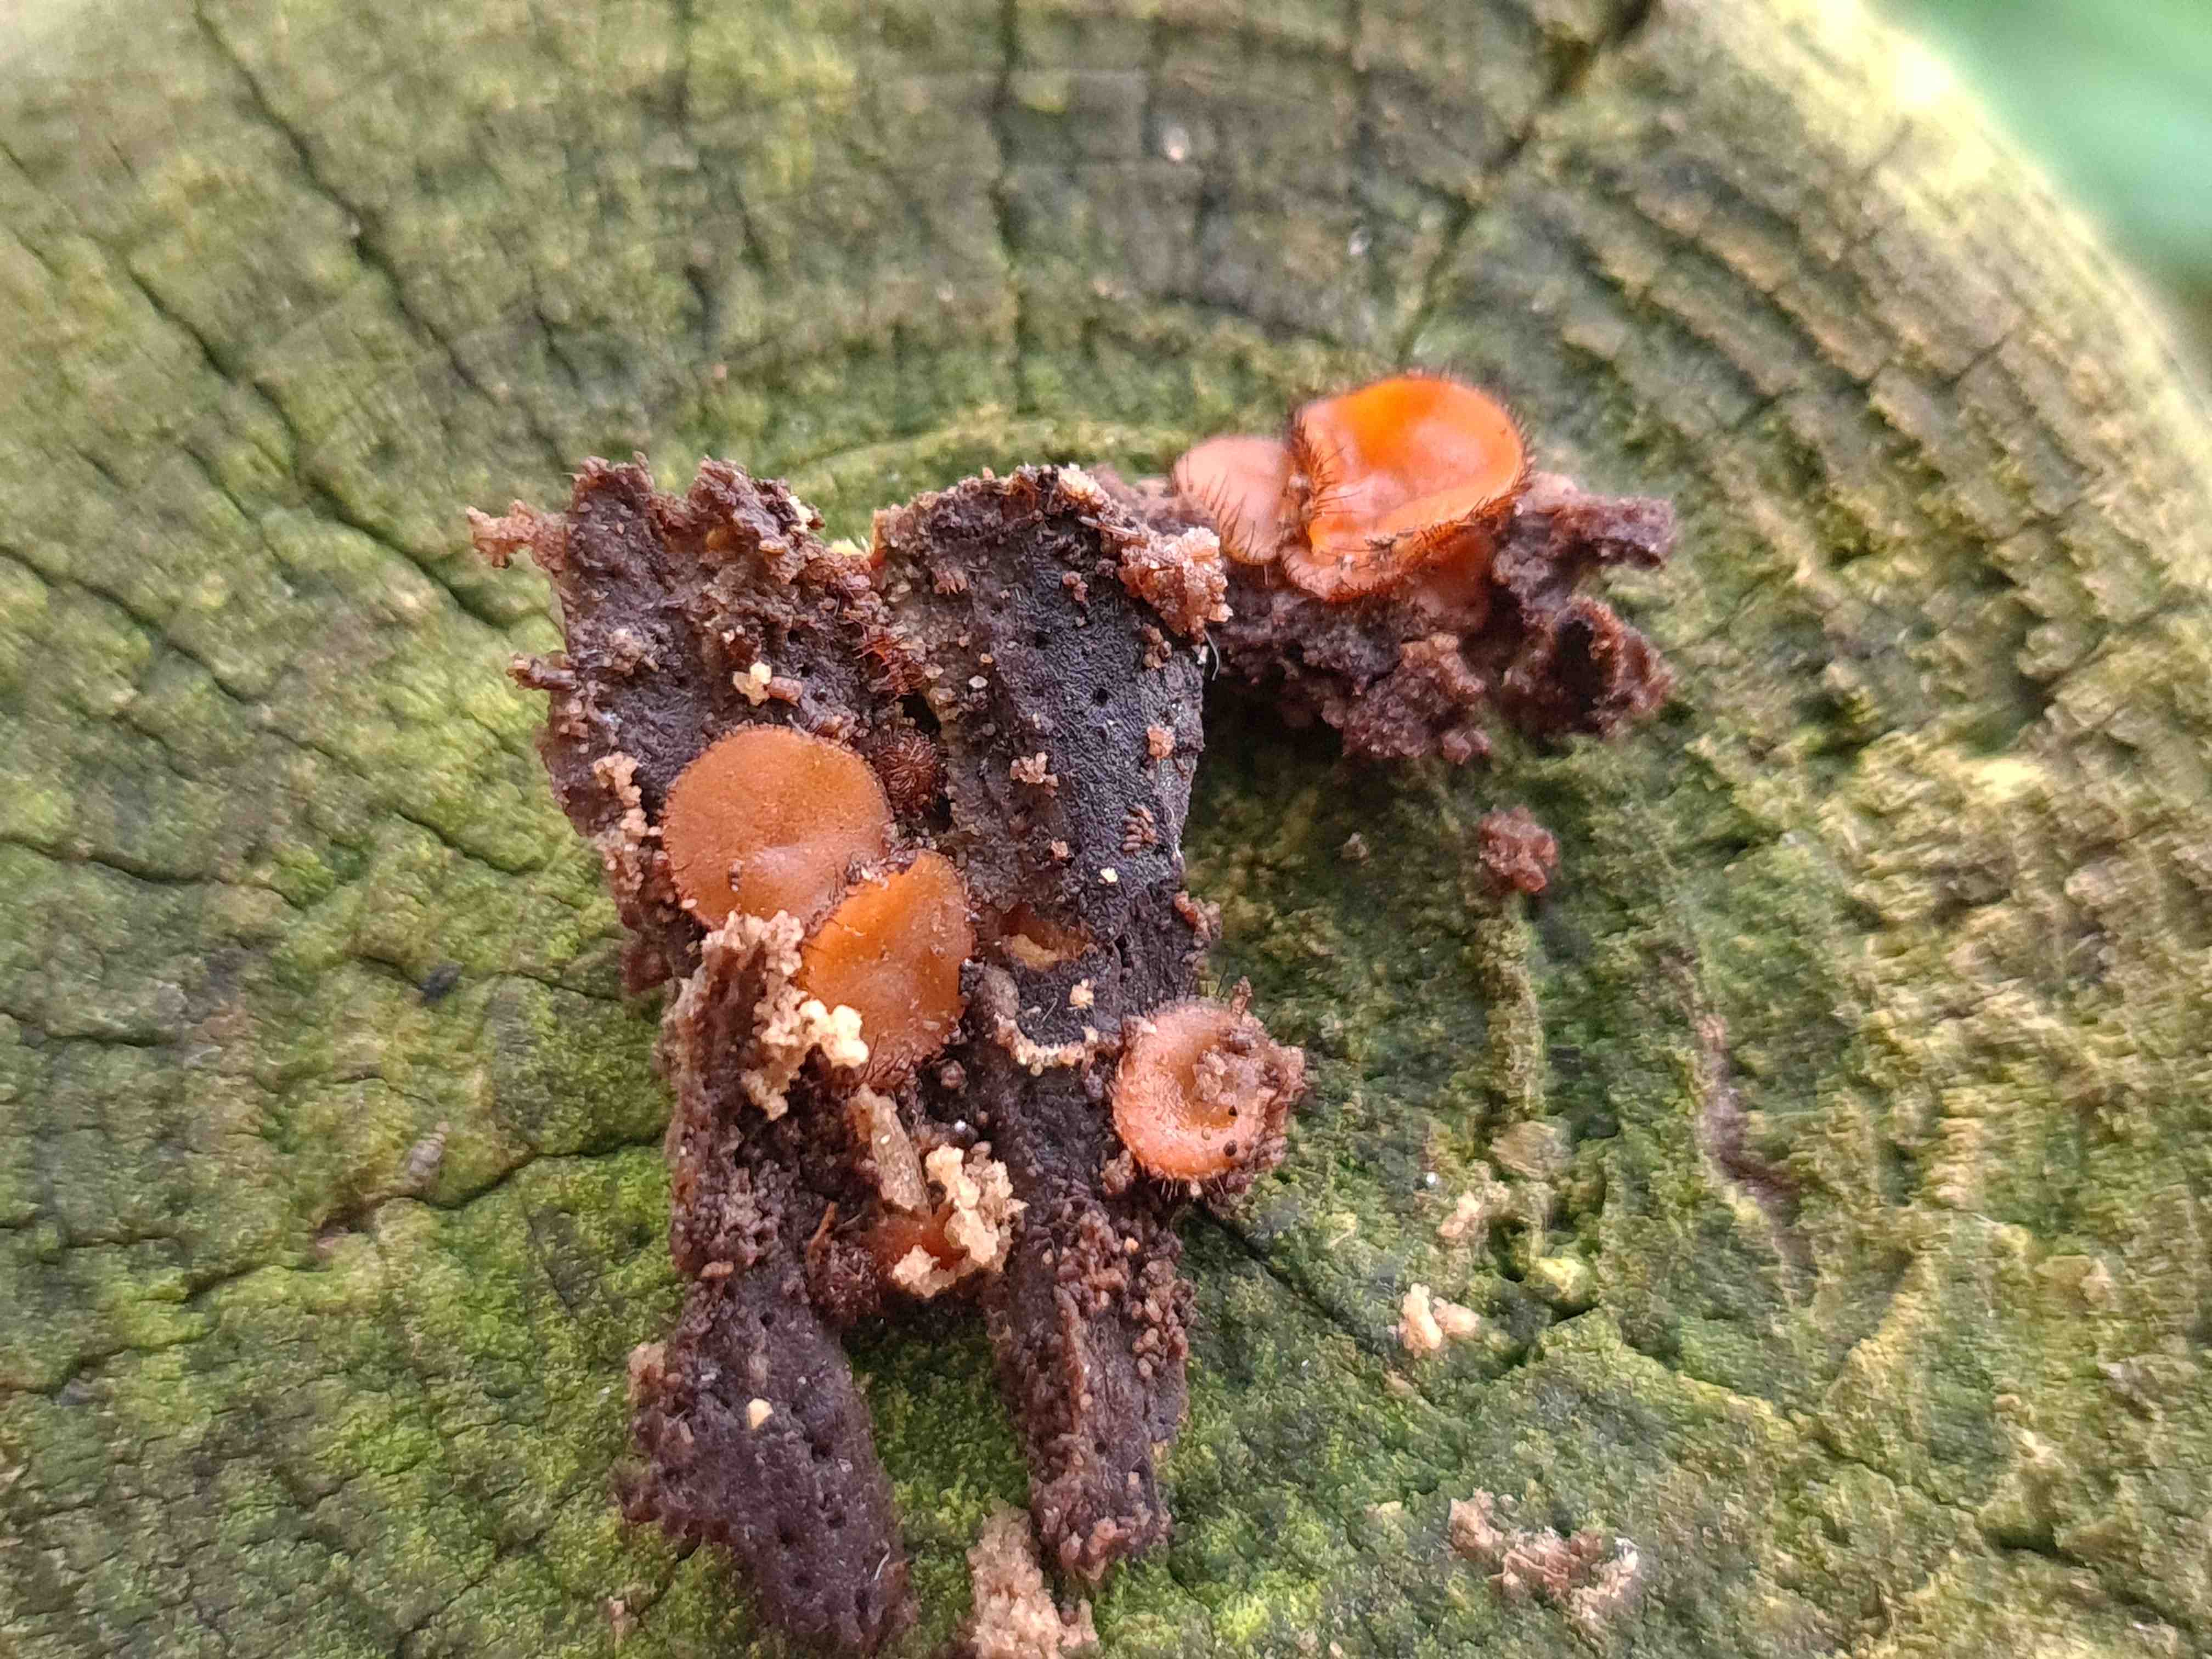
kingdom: Fungi
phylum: Ascomycota
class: Pezizomycetes
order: Pezizales
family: Pyronemataceae
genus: Scutellinia
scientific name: Scutellinia scutellata
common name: frynset skjoldbæger
